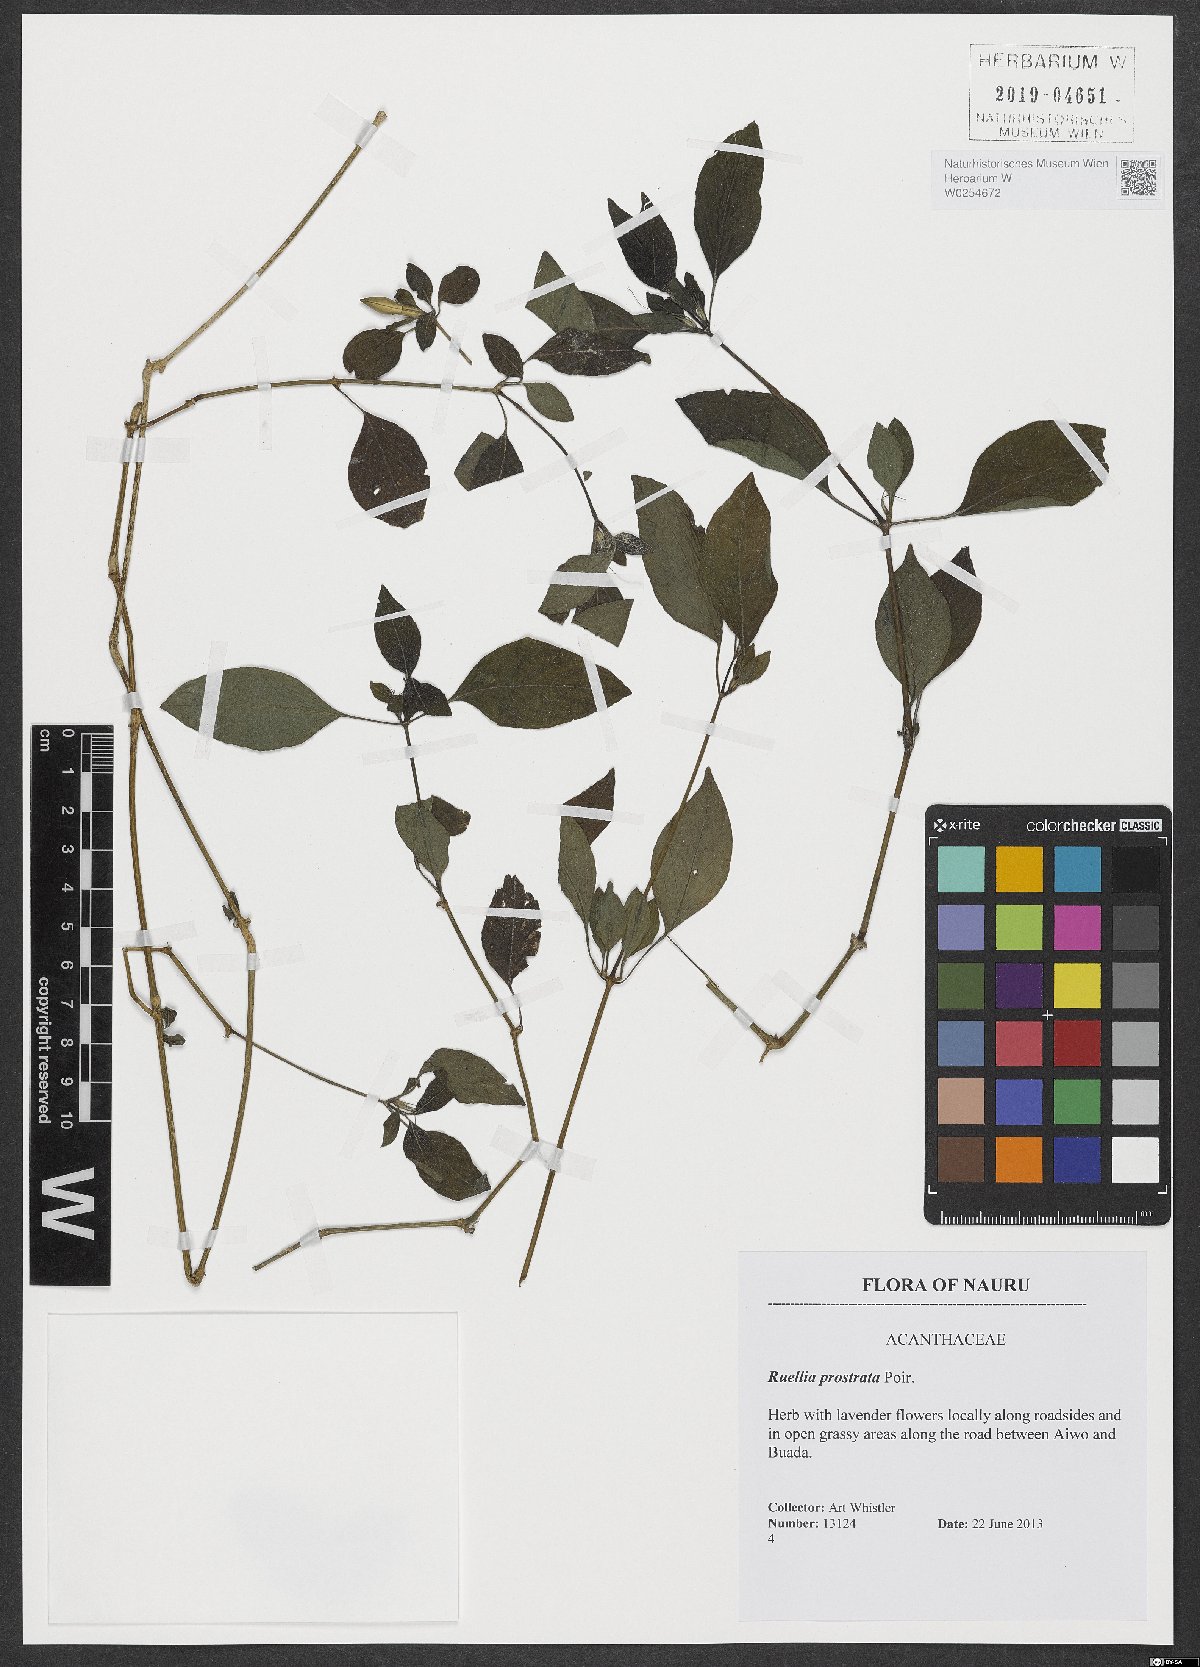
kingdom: Plantae
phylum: Tracheophyta
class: Magnoliopsida
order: Lamiales
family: Acanthaceae
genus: Ruellia
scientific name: Ruellia lactea
